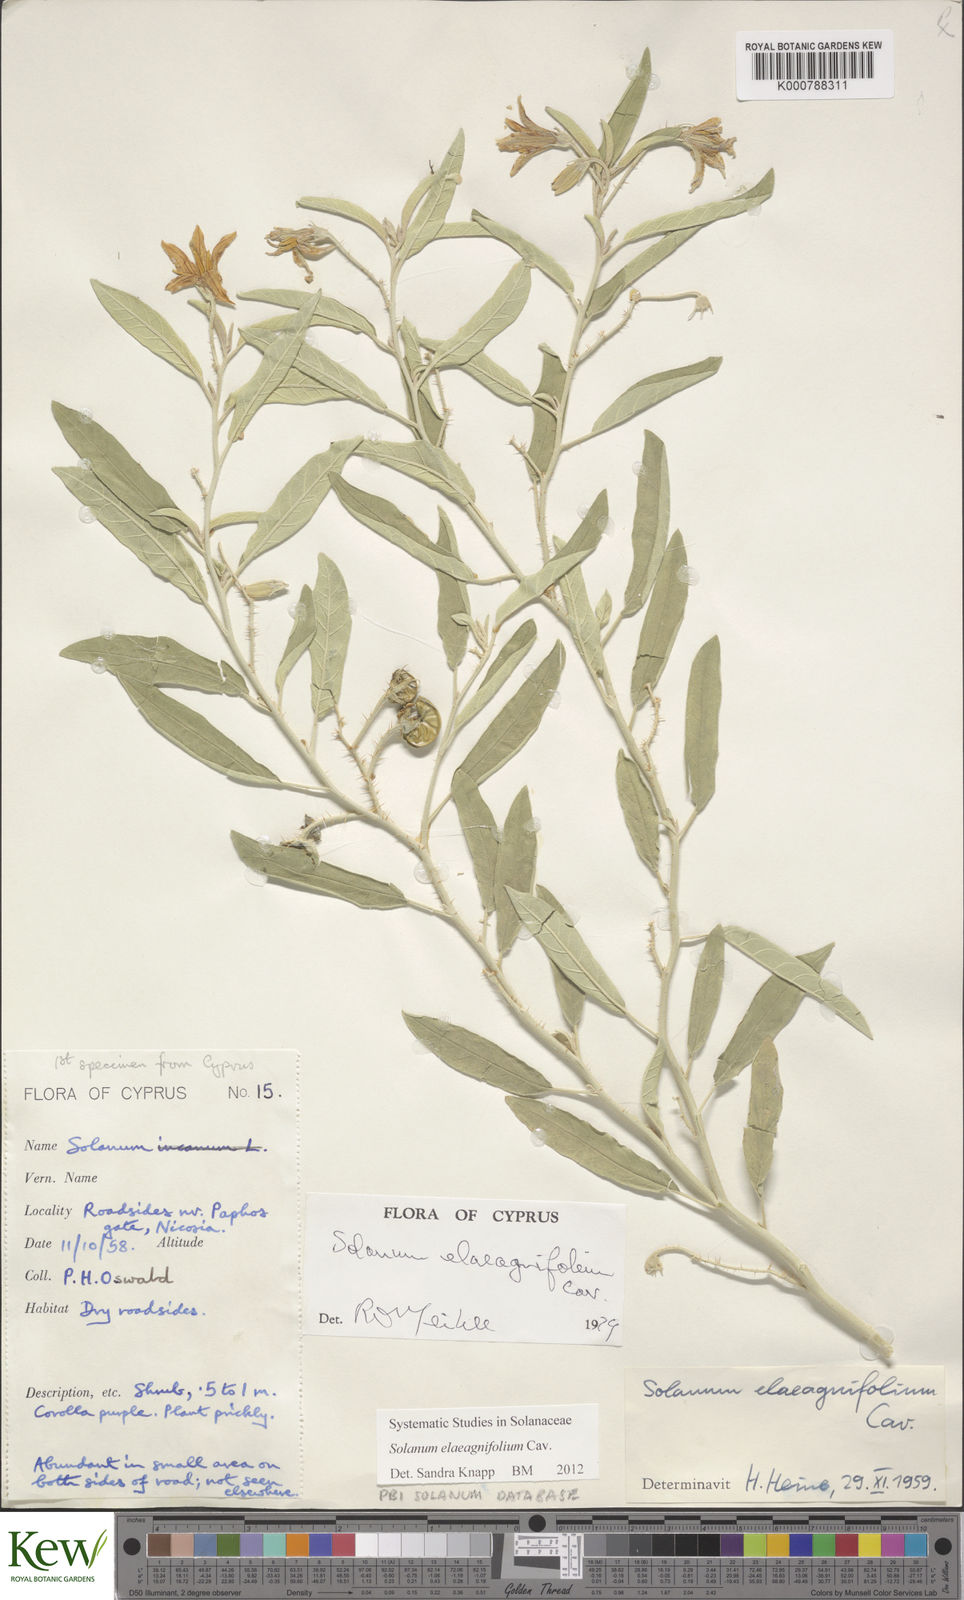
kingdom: Plantae
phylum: Tracheophyta
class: Magnoliopsida
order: Solanales
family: Solanaceae
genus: Solanum
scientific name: Solanum elaeagnifolium
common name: Silverleaf nightshade
